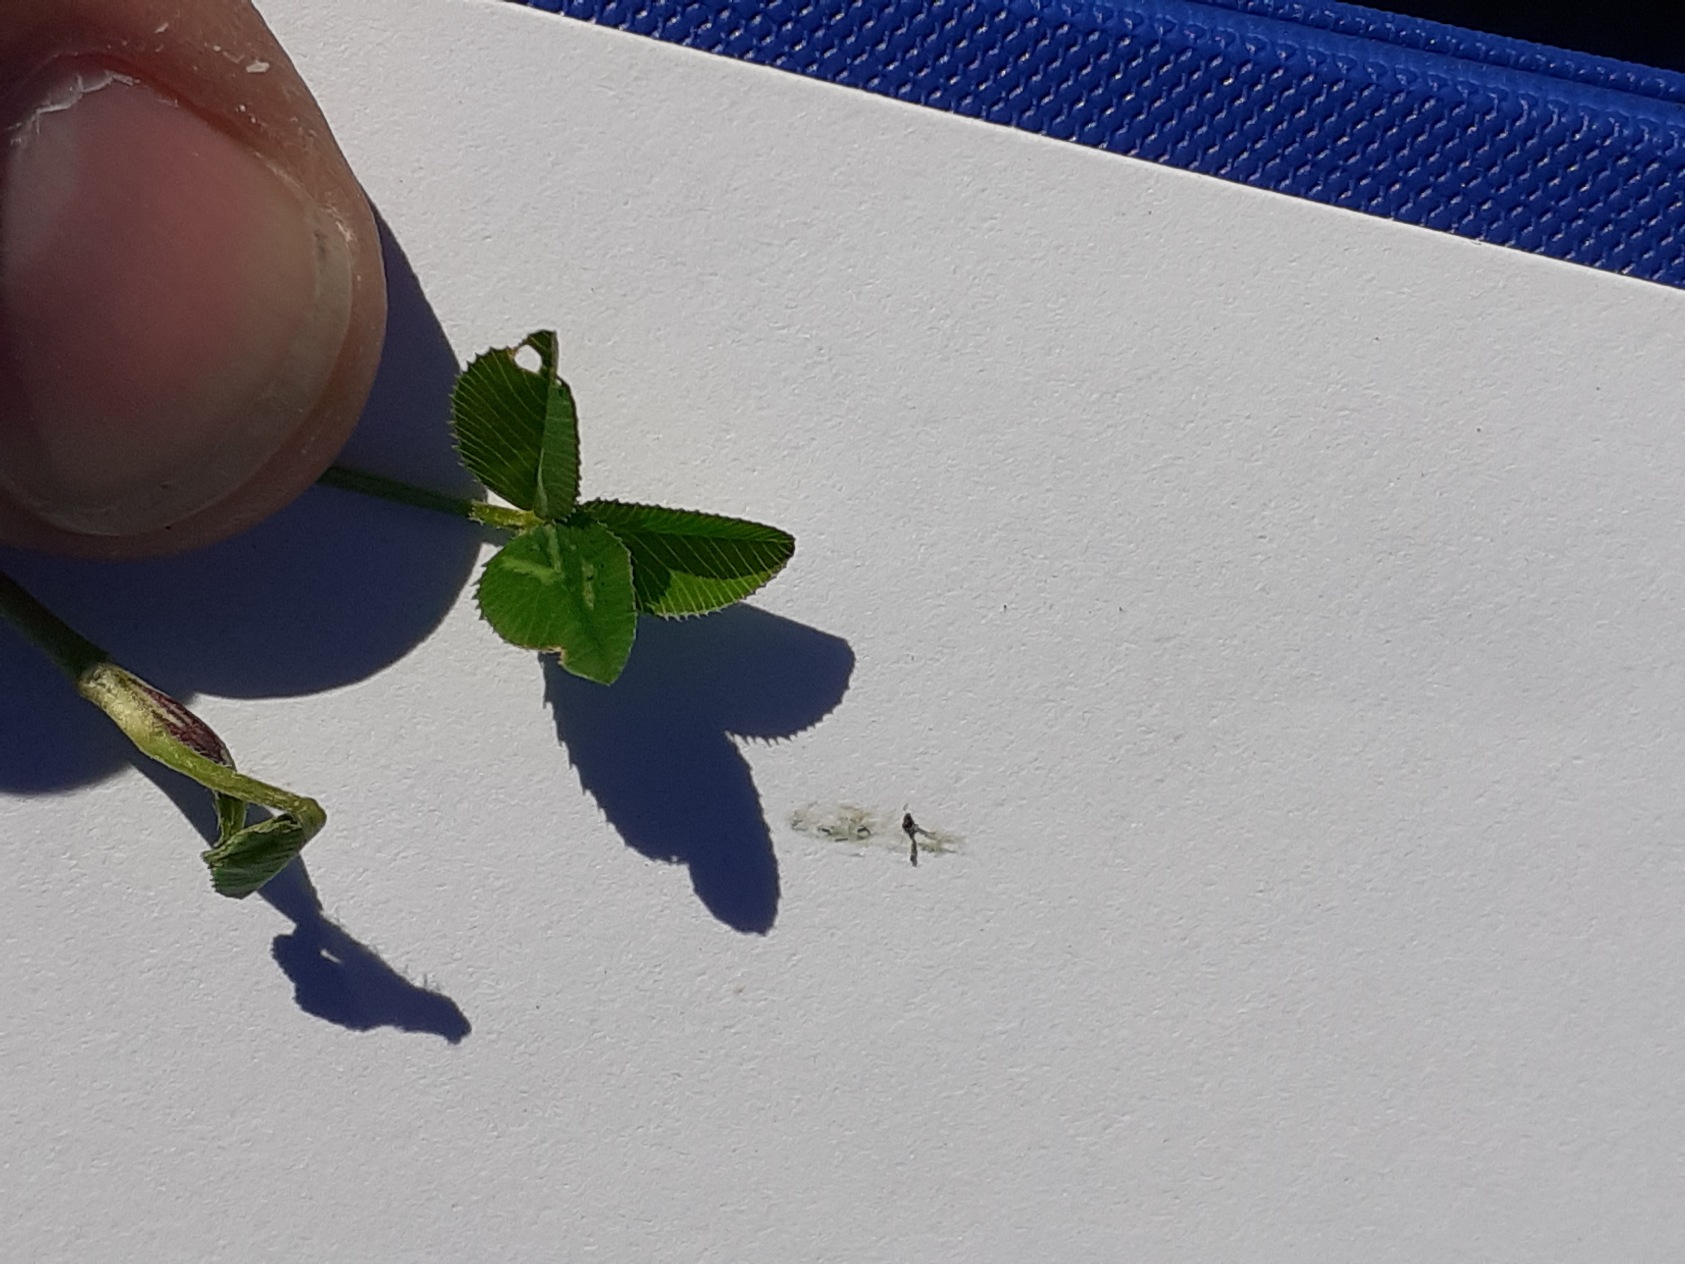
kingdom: Plantae
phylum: Tracheophyta
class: Magnoliopsida
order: Fabales
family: Fabaceae
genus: Trifolium
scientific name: Trifolium repens
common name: Hvid-kløver
